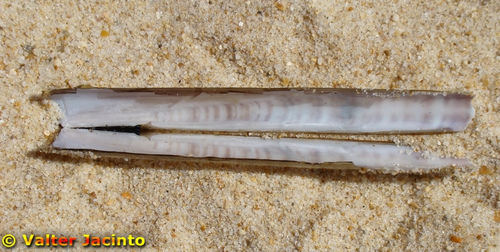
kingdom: Animalia
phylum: Mollusca
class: Bivalvia
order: Adapedonta
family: Pharidae
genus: Ensis
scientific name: Ensis siliqua
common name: Pod razor shell
